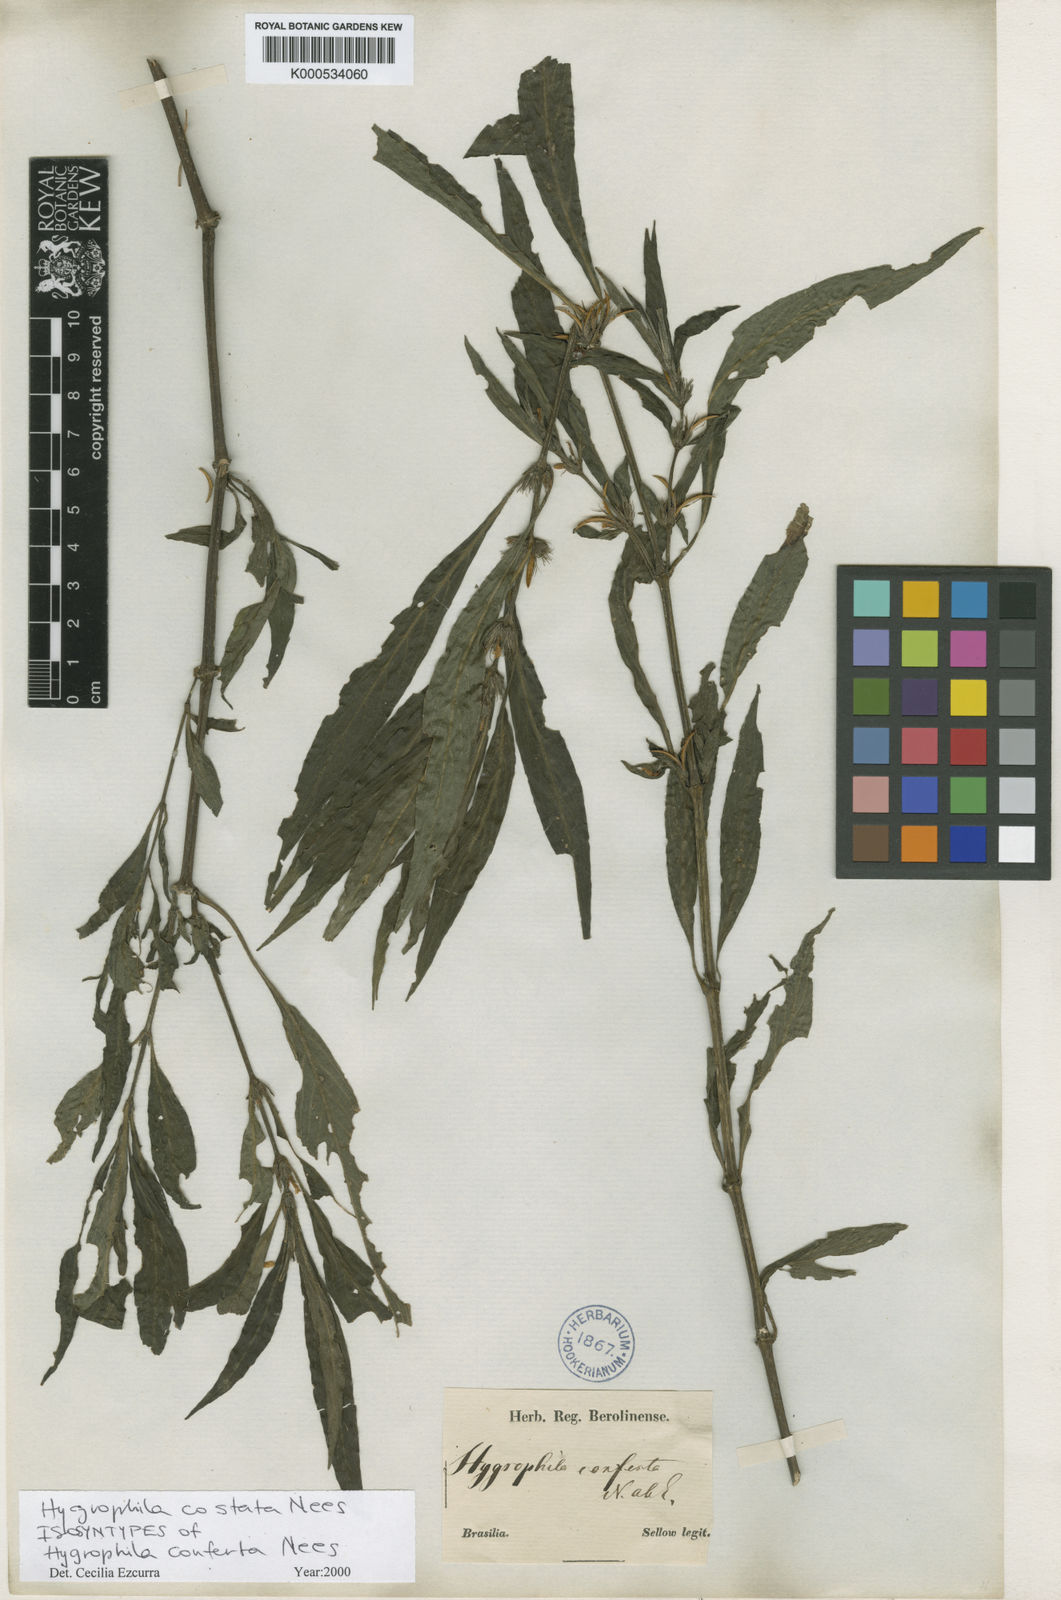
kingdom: Plantae
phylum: Tracheophyta
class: Magnoliopsida
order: Lamiales
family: Acanthaceae
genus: Hygrophila
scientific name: Hygrophila costata
